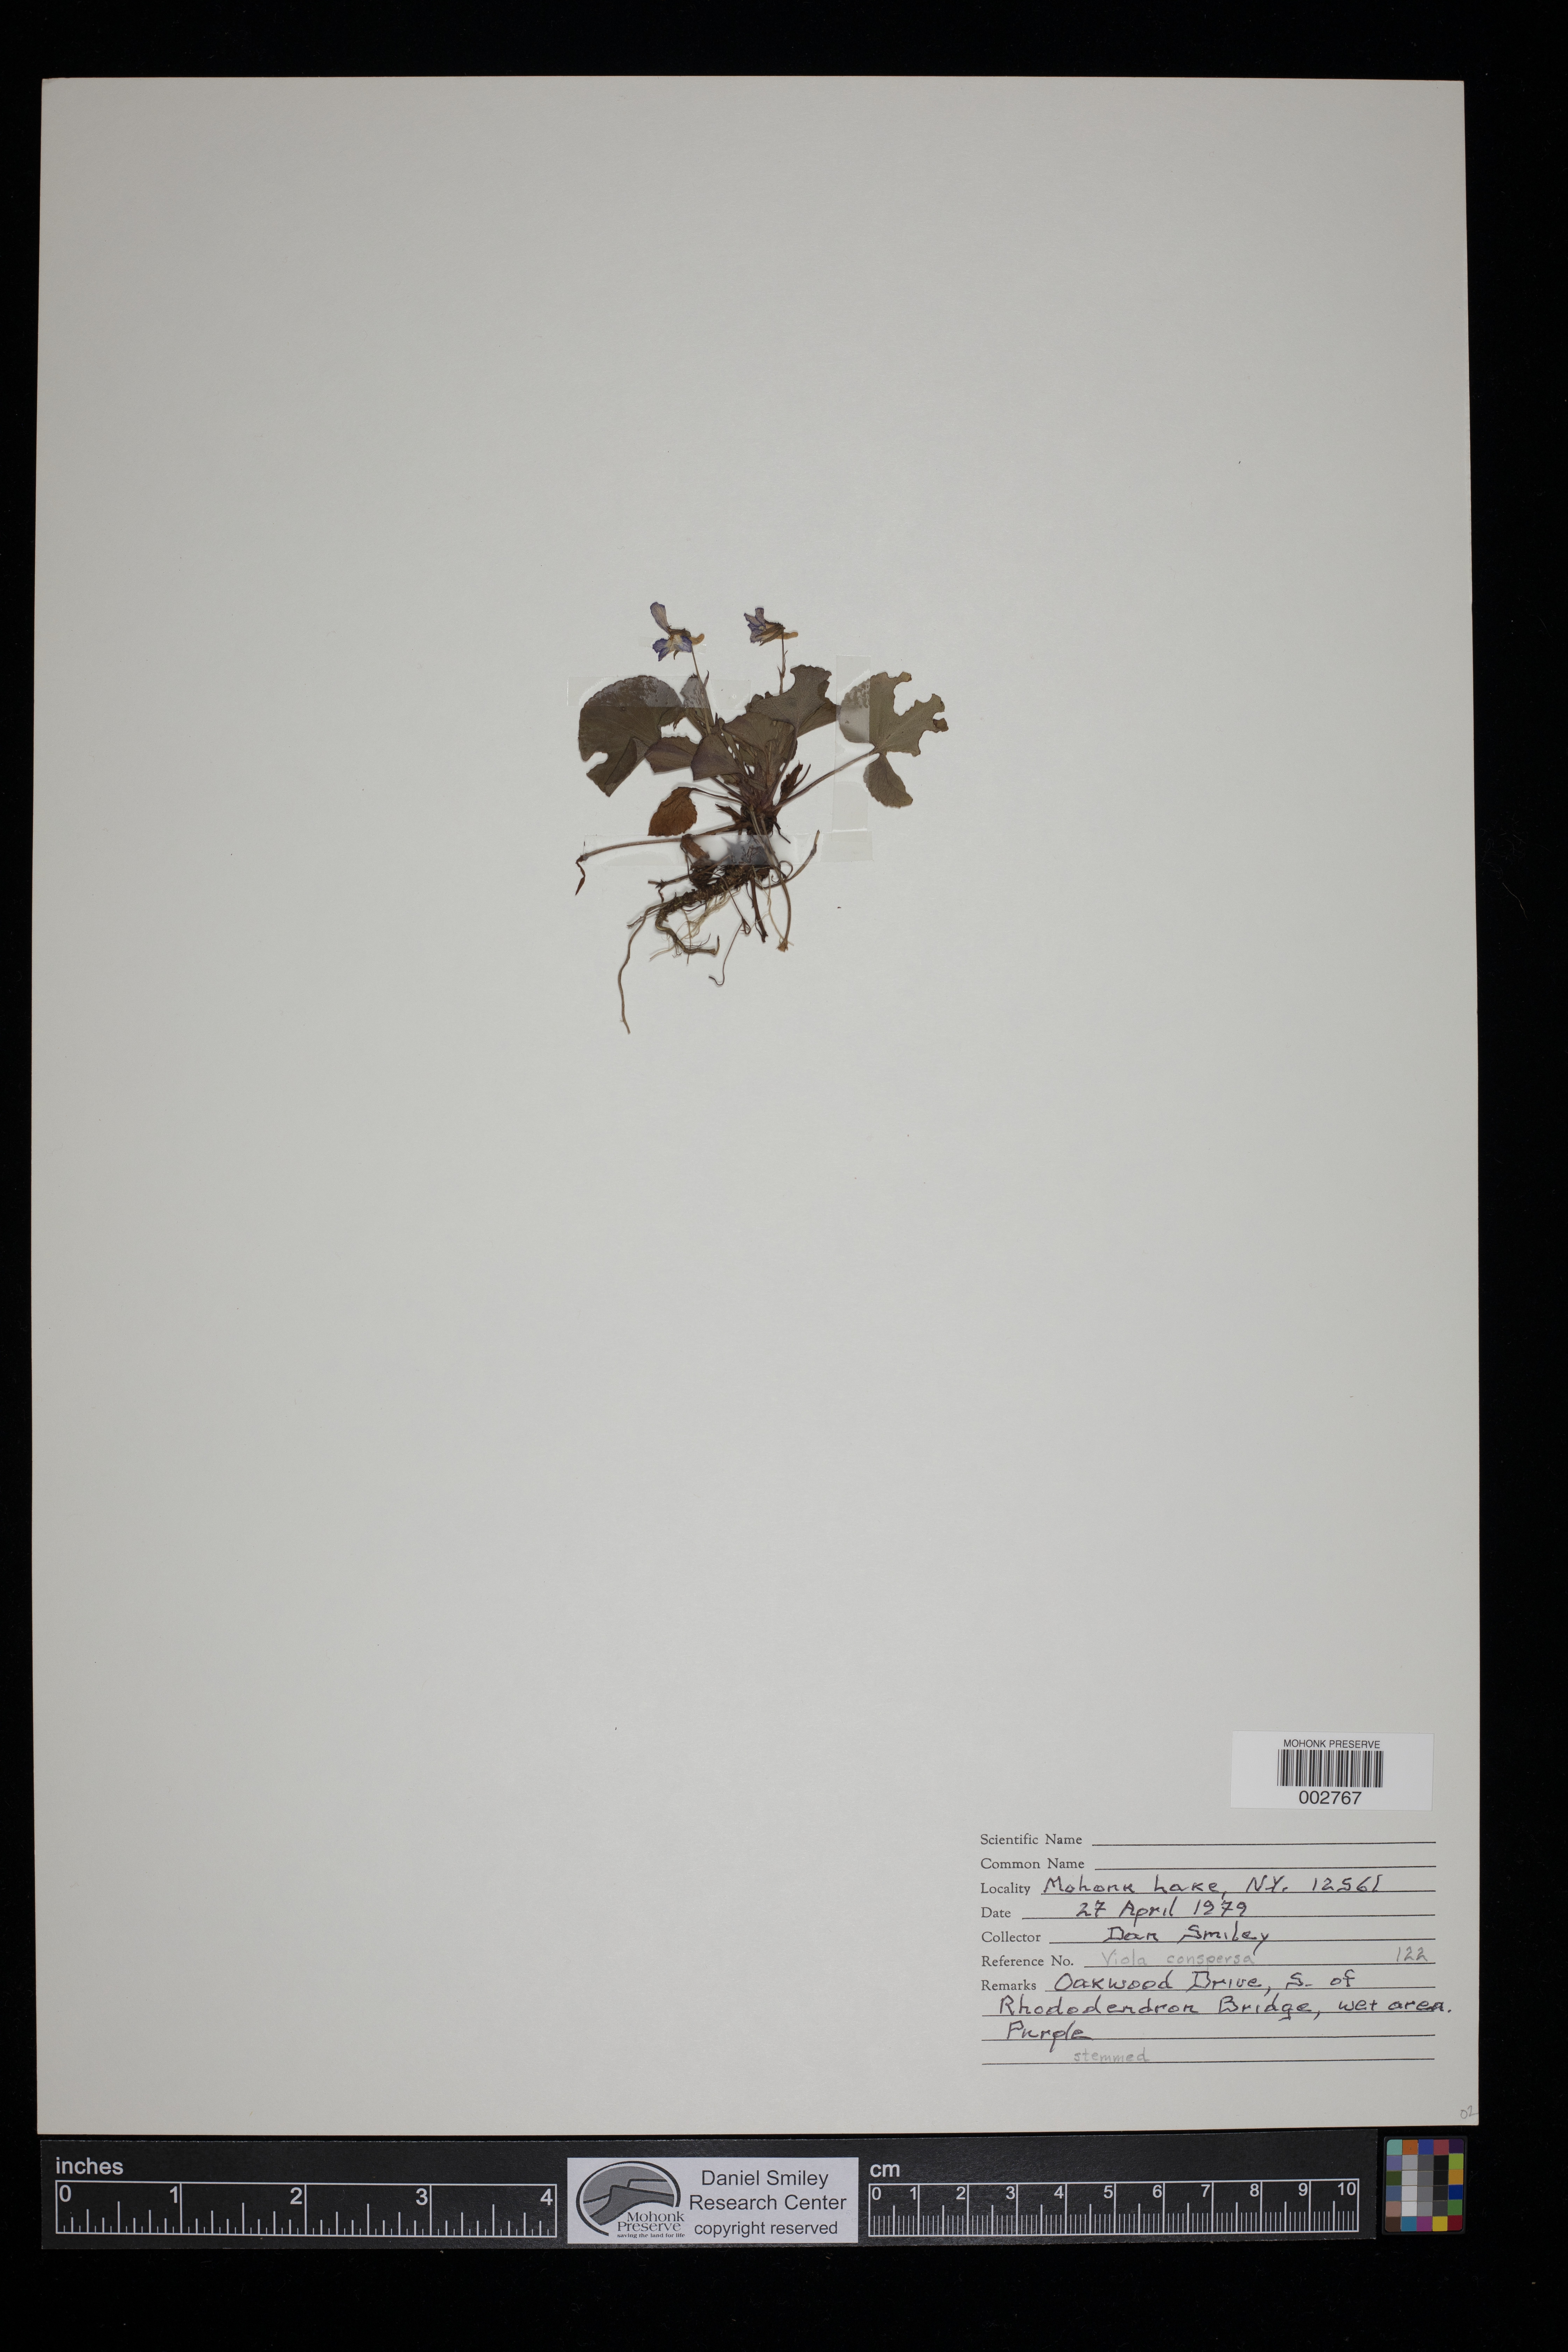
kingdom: Plantae
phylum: Tracheophyta
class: Magnoliopsida
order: Malpighiales
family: Violaceae
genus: Viola
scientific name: Viola labradorica
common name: Labrador violet
